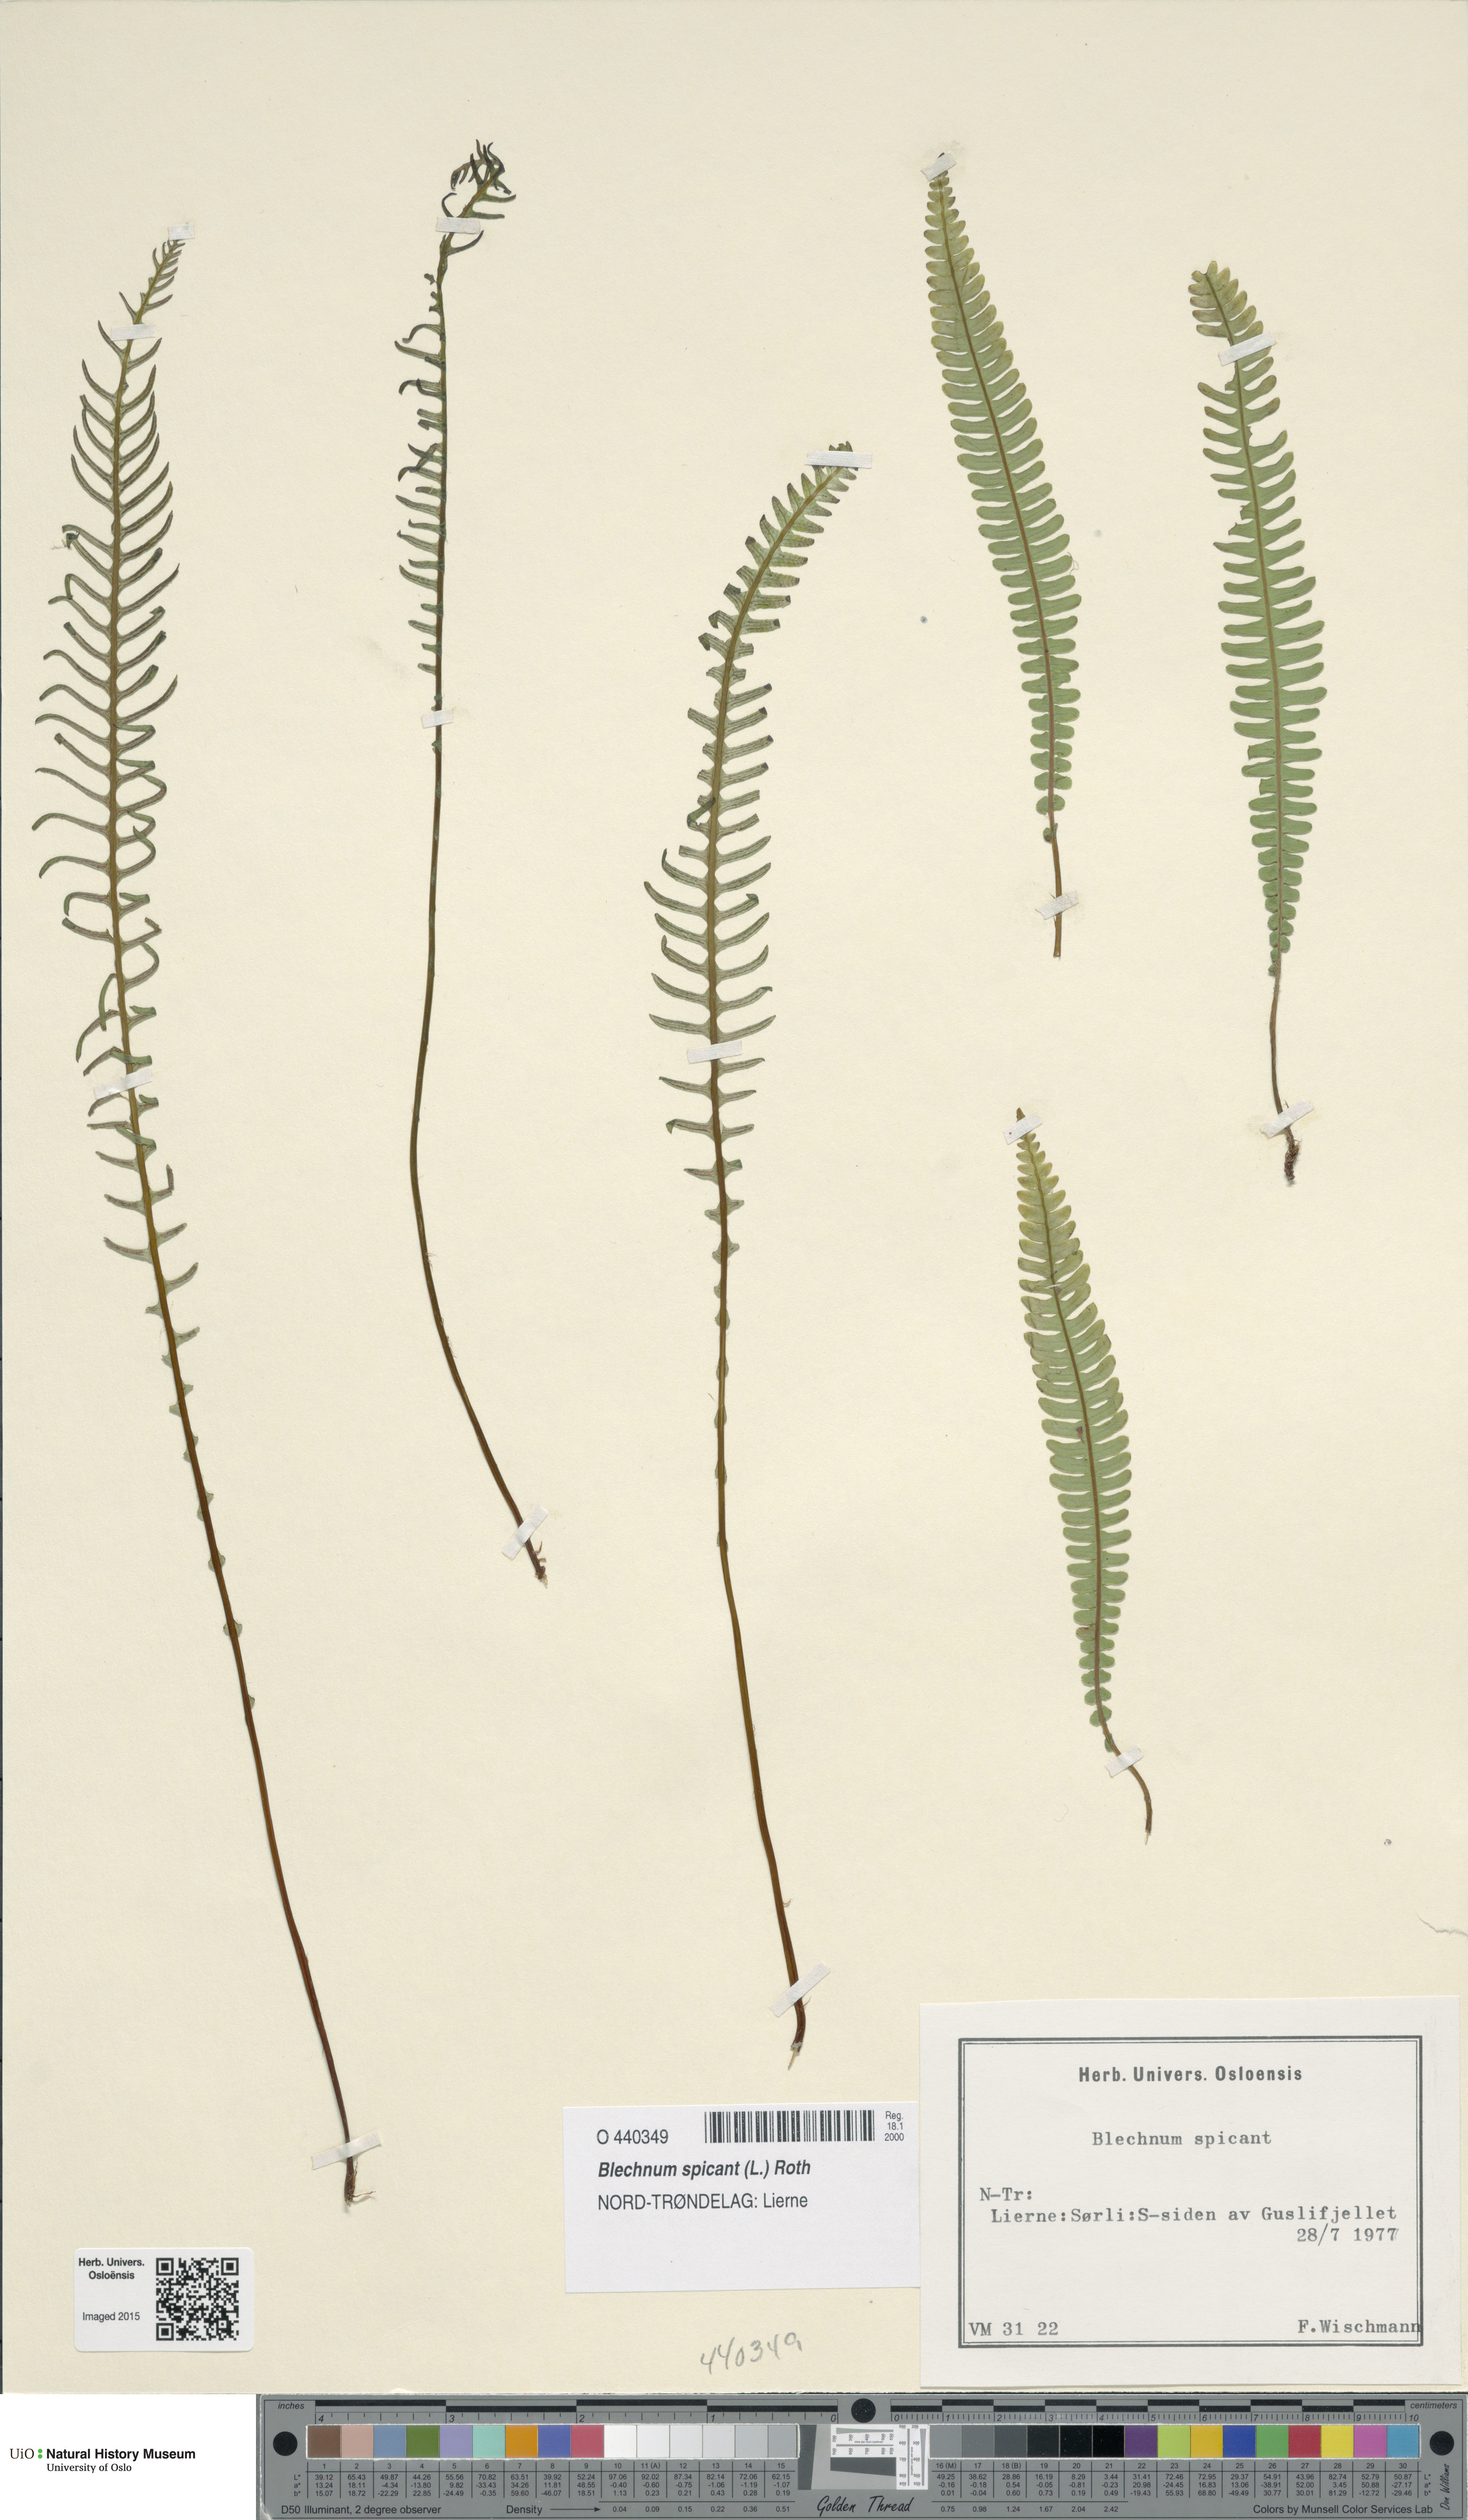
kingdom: Plantae
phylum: Tracheophyta
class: Polypodiopsida
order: Polypodiales
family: Blechnaceae
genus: Struthiopteris
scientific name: Struthiopteris spicant
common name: Deer fern
